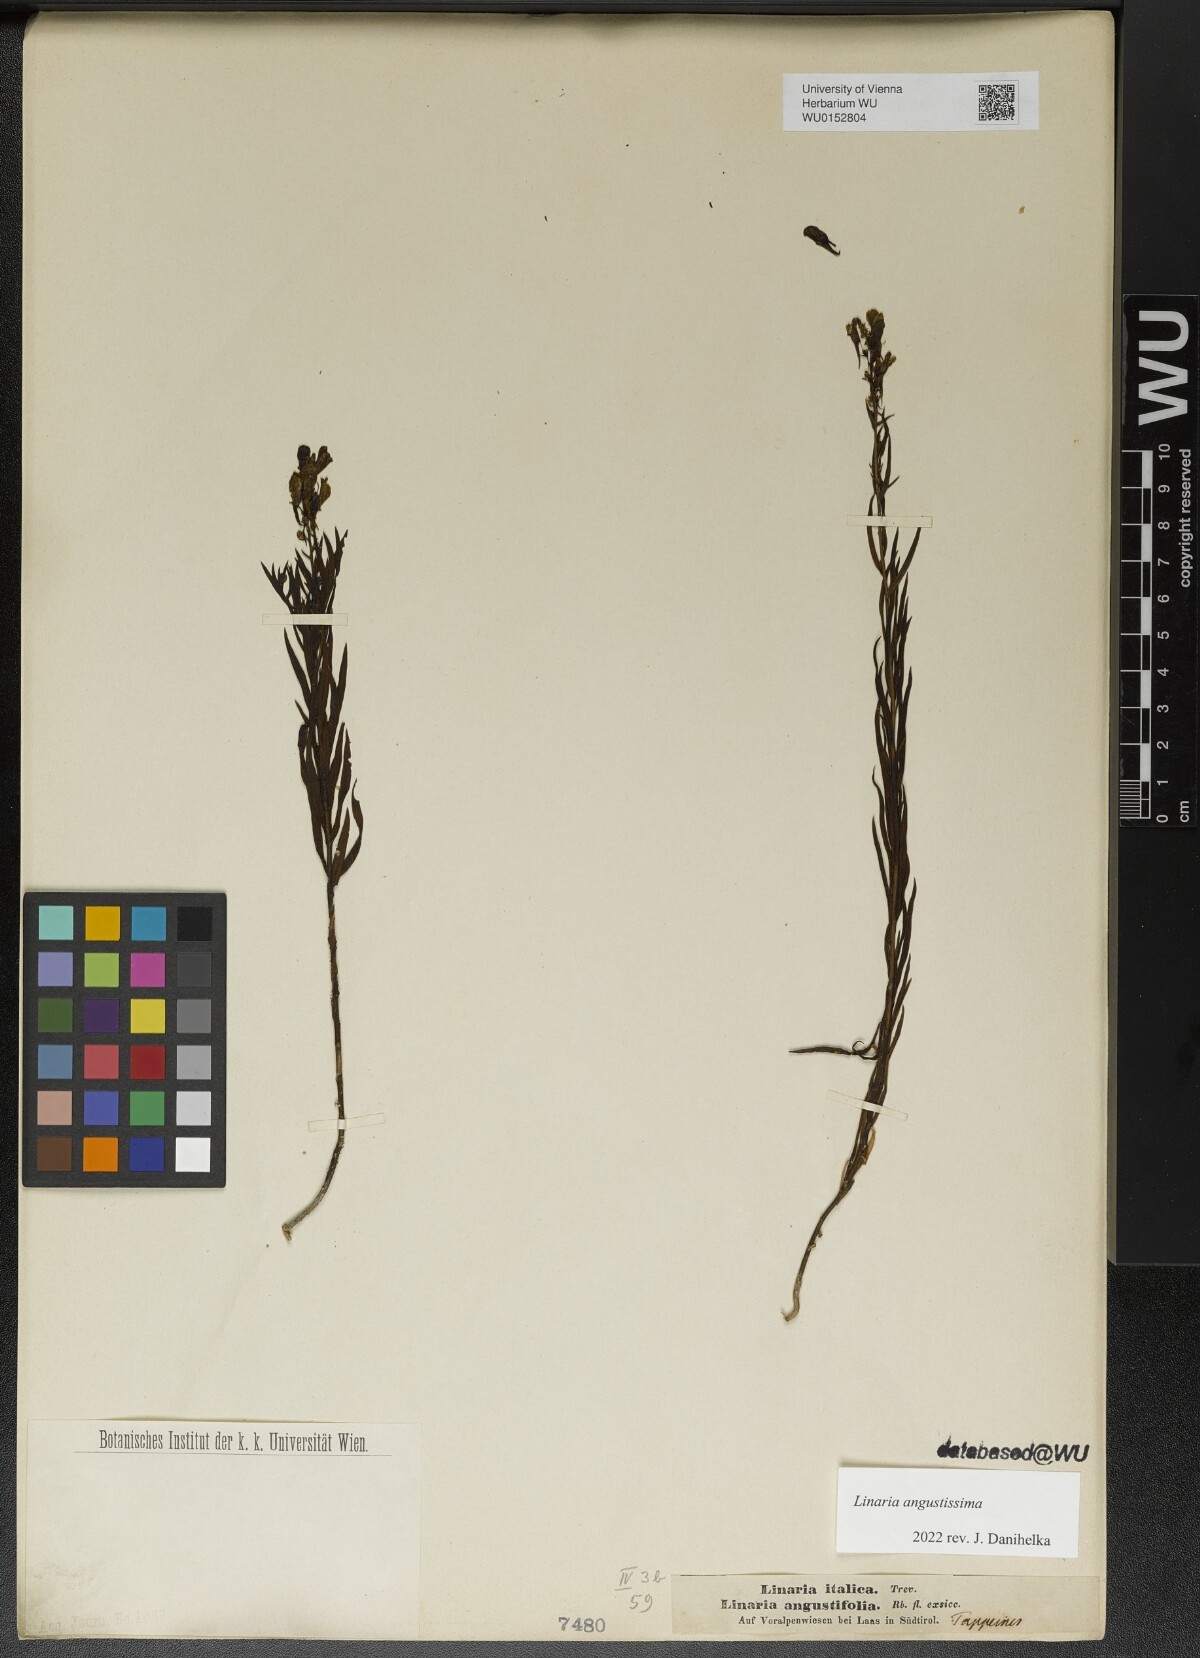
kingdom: Plantae
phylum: Tracheophyta
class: Magnoliopsida
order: Lamiales
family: Plantaginaceae
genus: Linaria
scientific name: Linaria angustissima
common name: Italian toadflax
